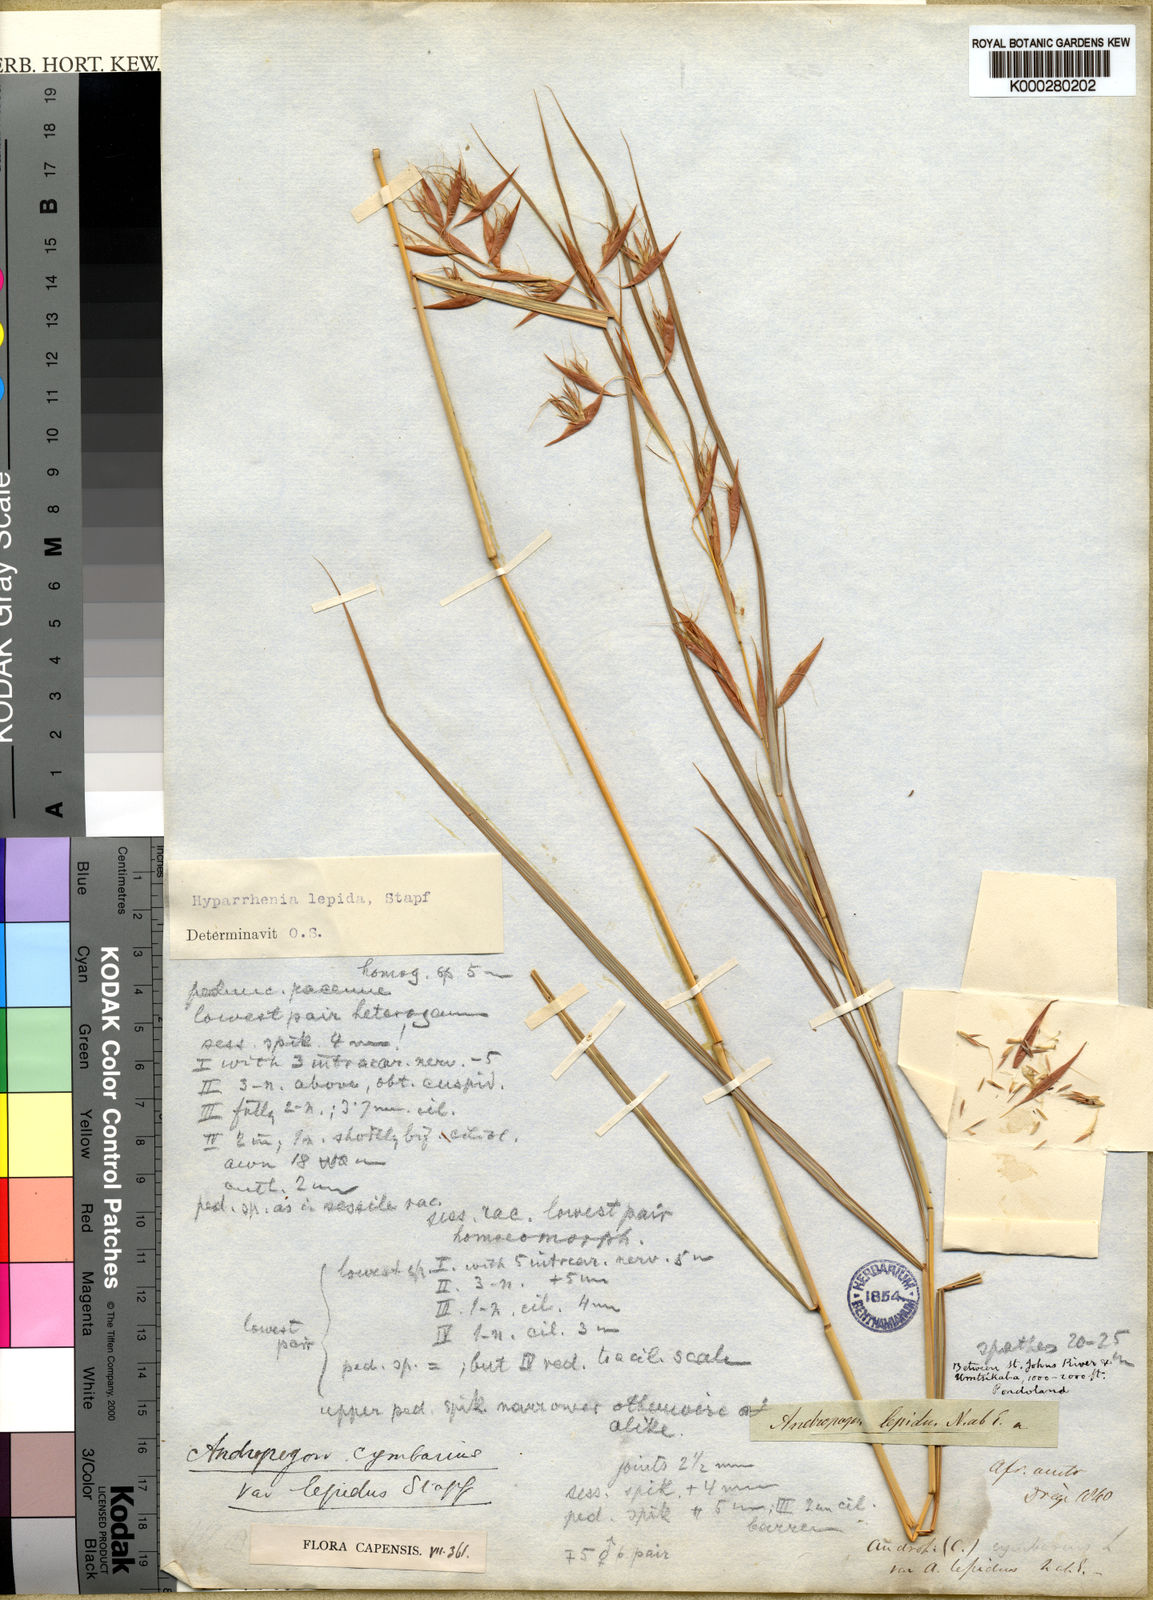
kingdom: Plantae
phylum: Tracheophyta
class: Liliopsida
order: Poales
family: Poaceae
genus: Hyparrhenia
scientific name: Hyparrhenia cymbaria
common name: Boat thatching grass
